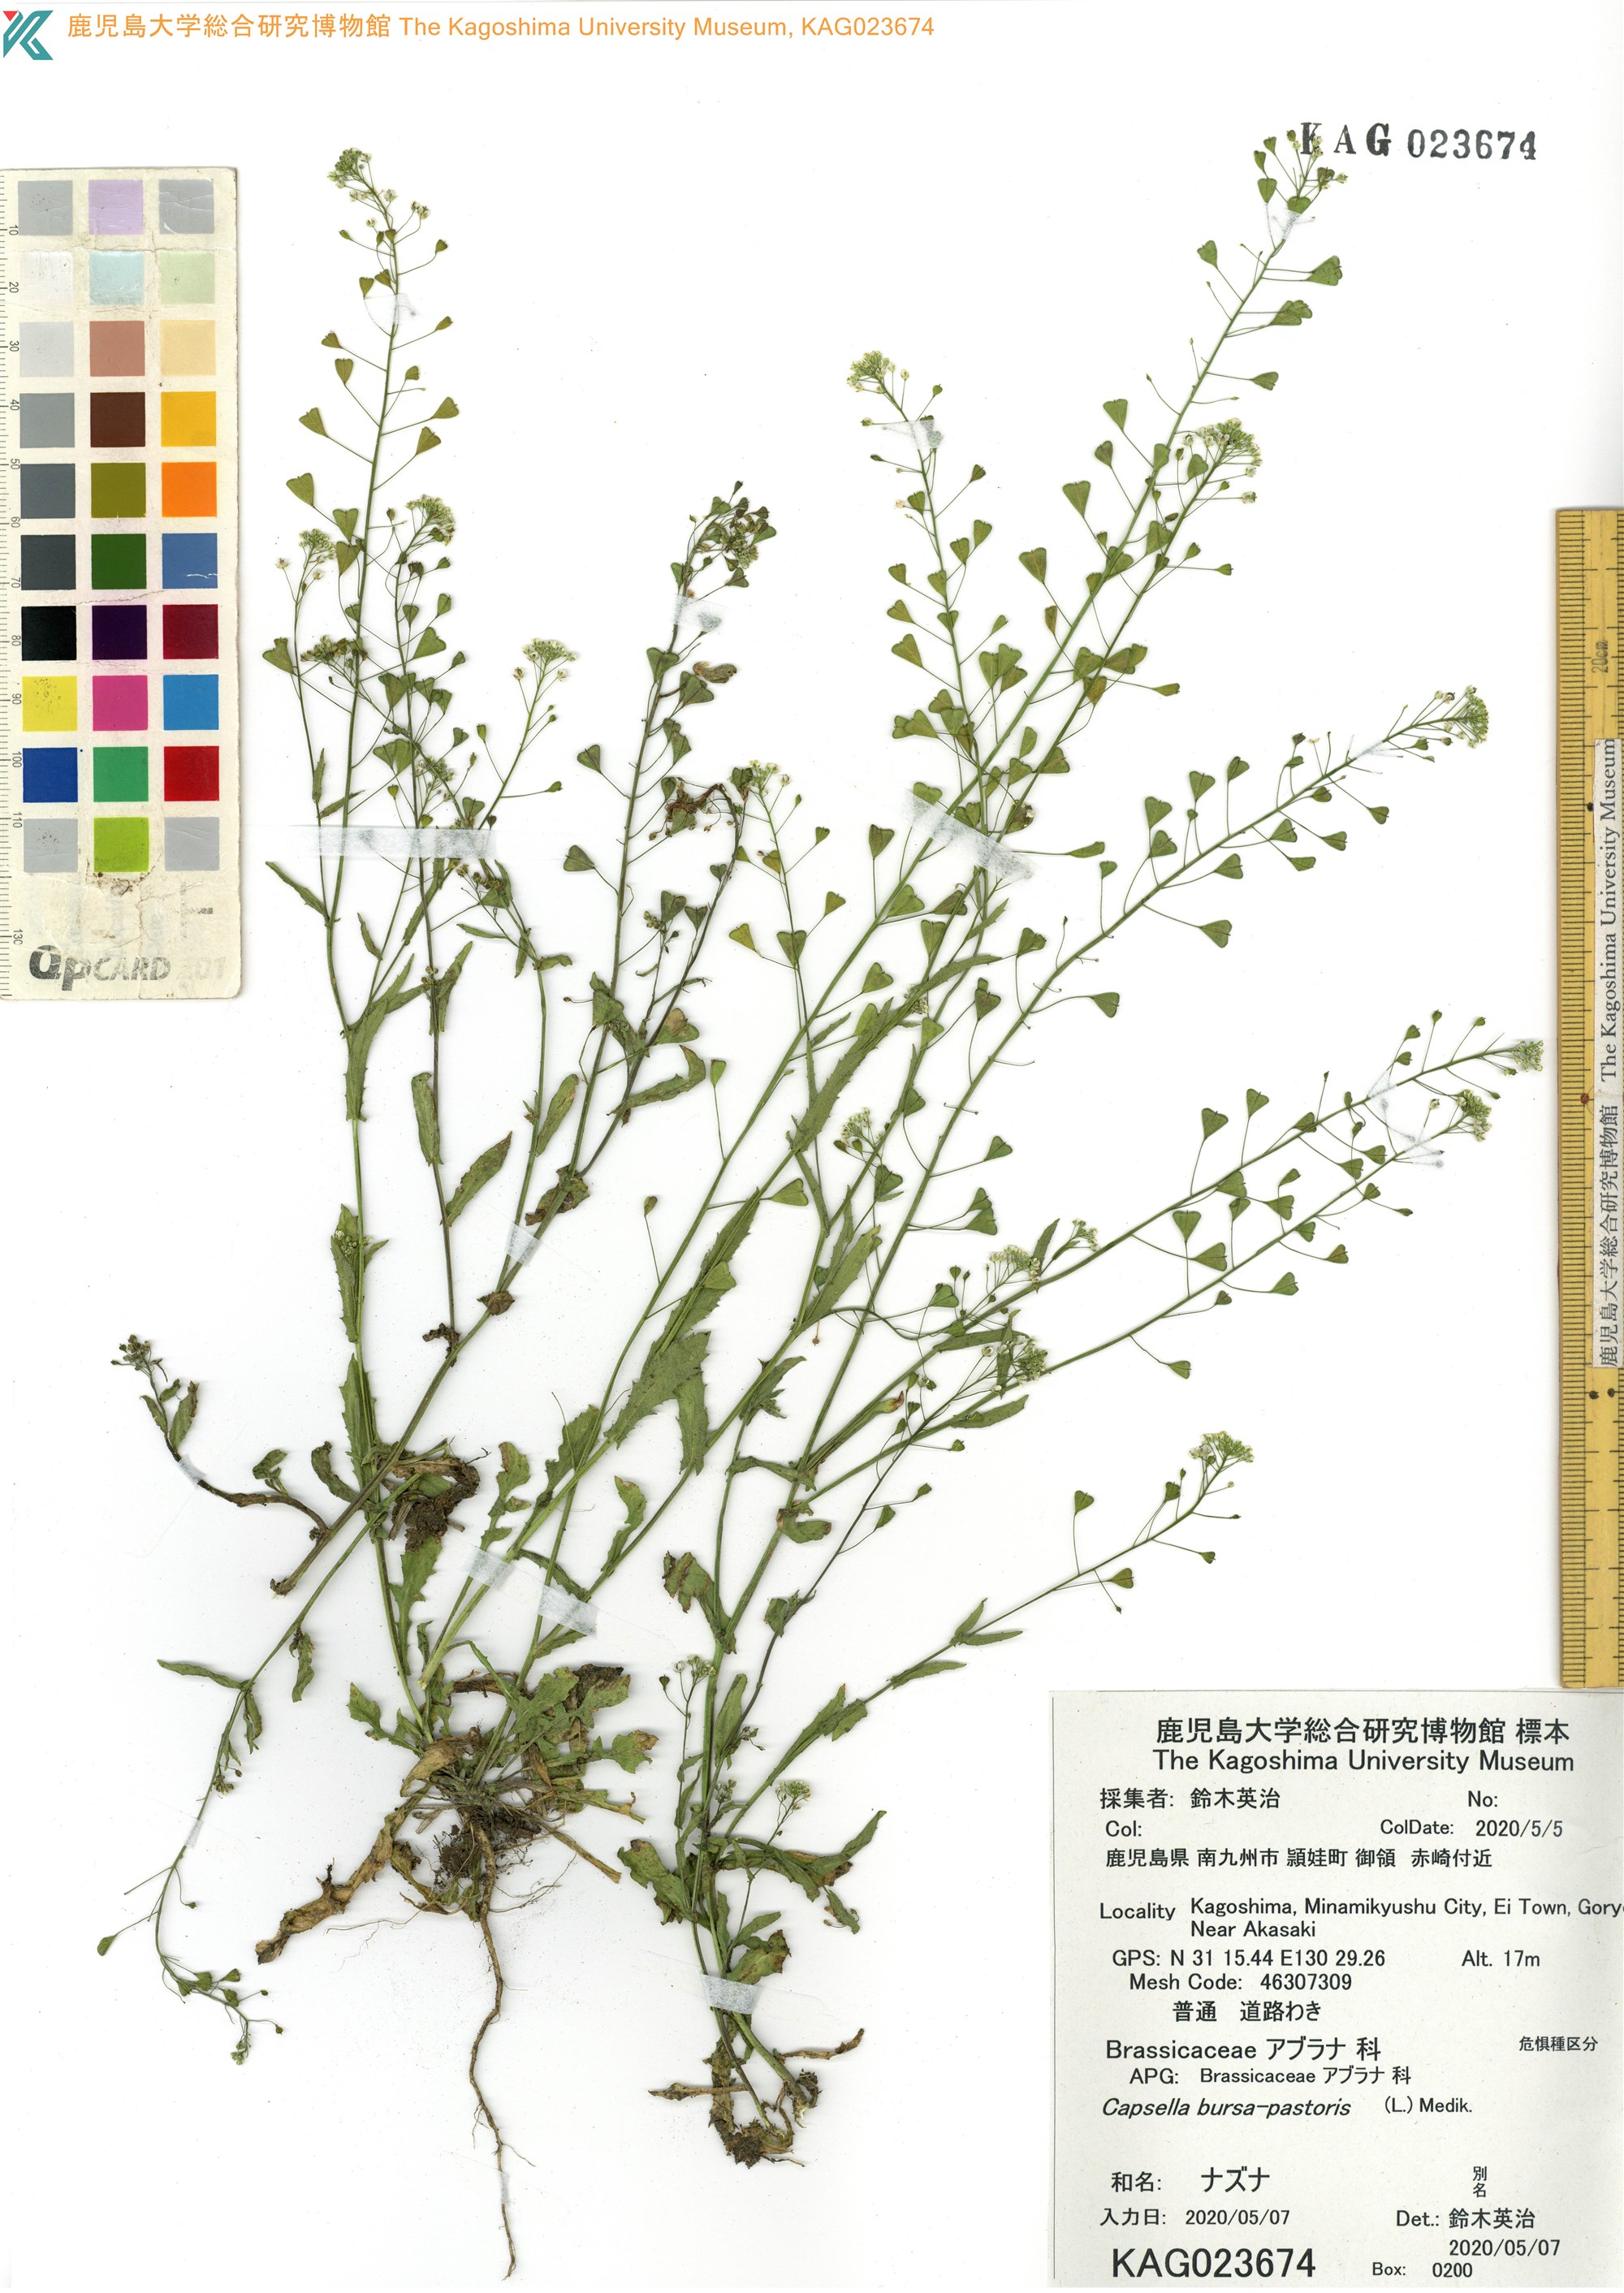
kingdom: Plantae
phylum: Tracheophyta
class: Magnoliopsida
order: Brassicales
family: Brassicaceae
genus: Capsella
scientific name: Capsella bursa-pastoris
